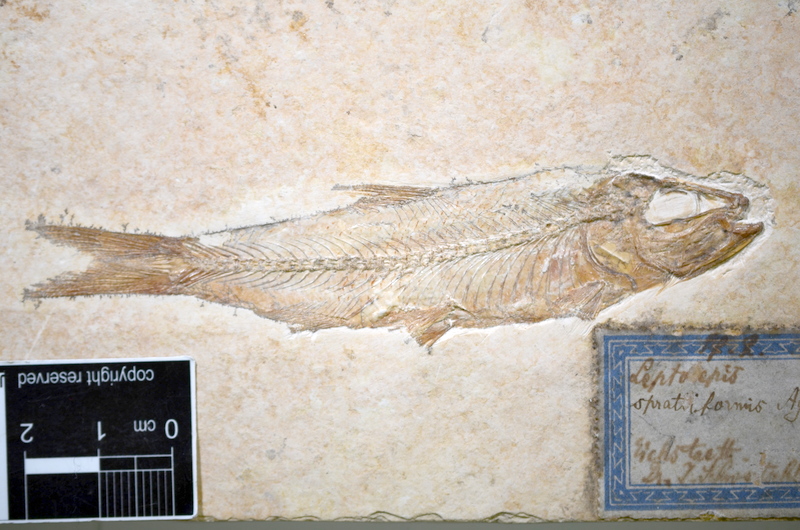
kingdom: Animalia
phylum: Chordata
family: Ascalaboidae
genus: Ascalabos
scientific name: Ascalabos voithii
